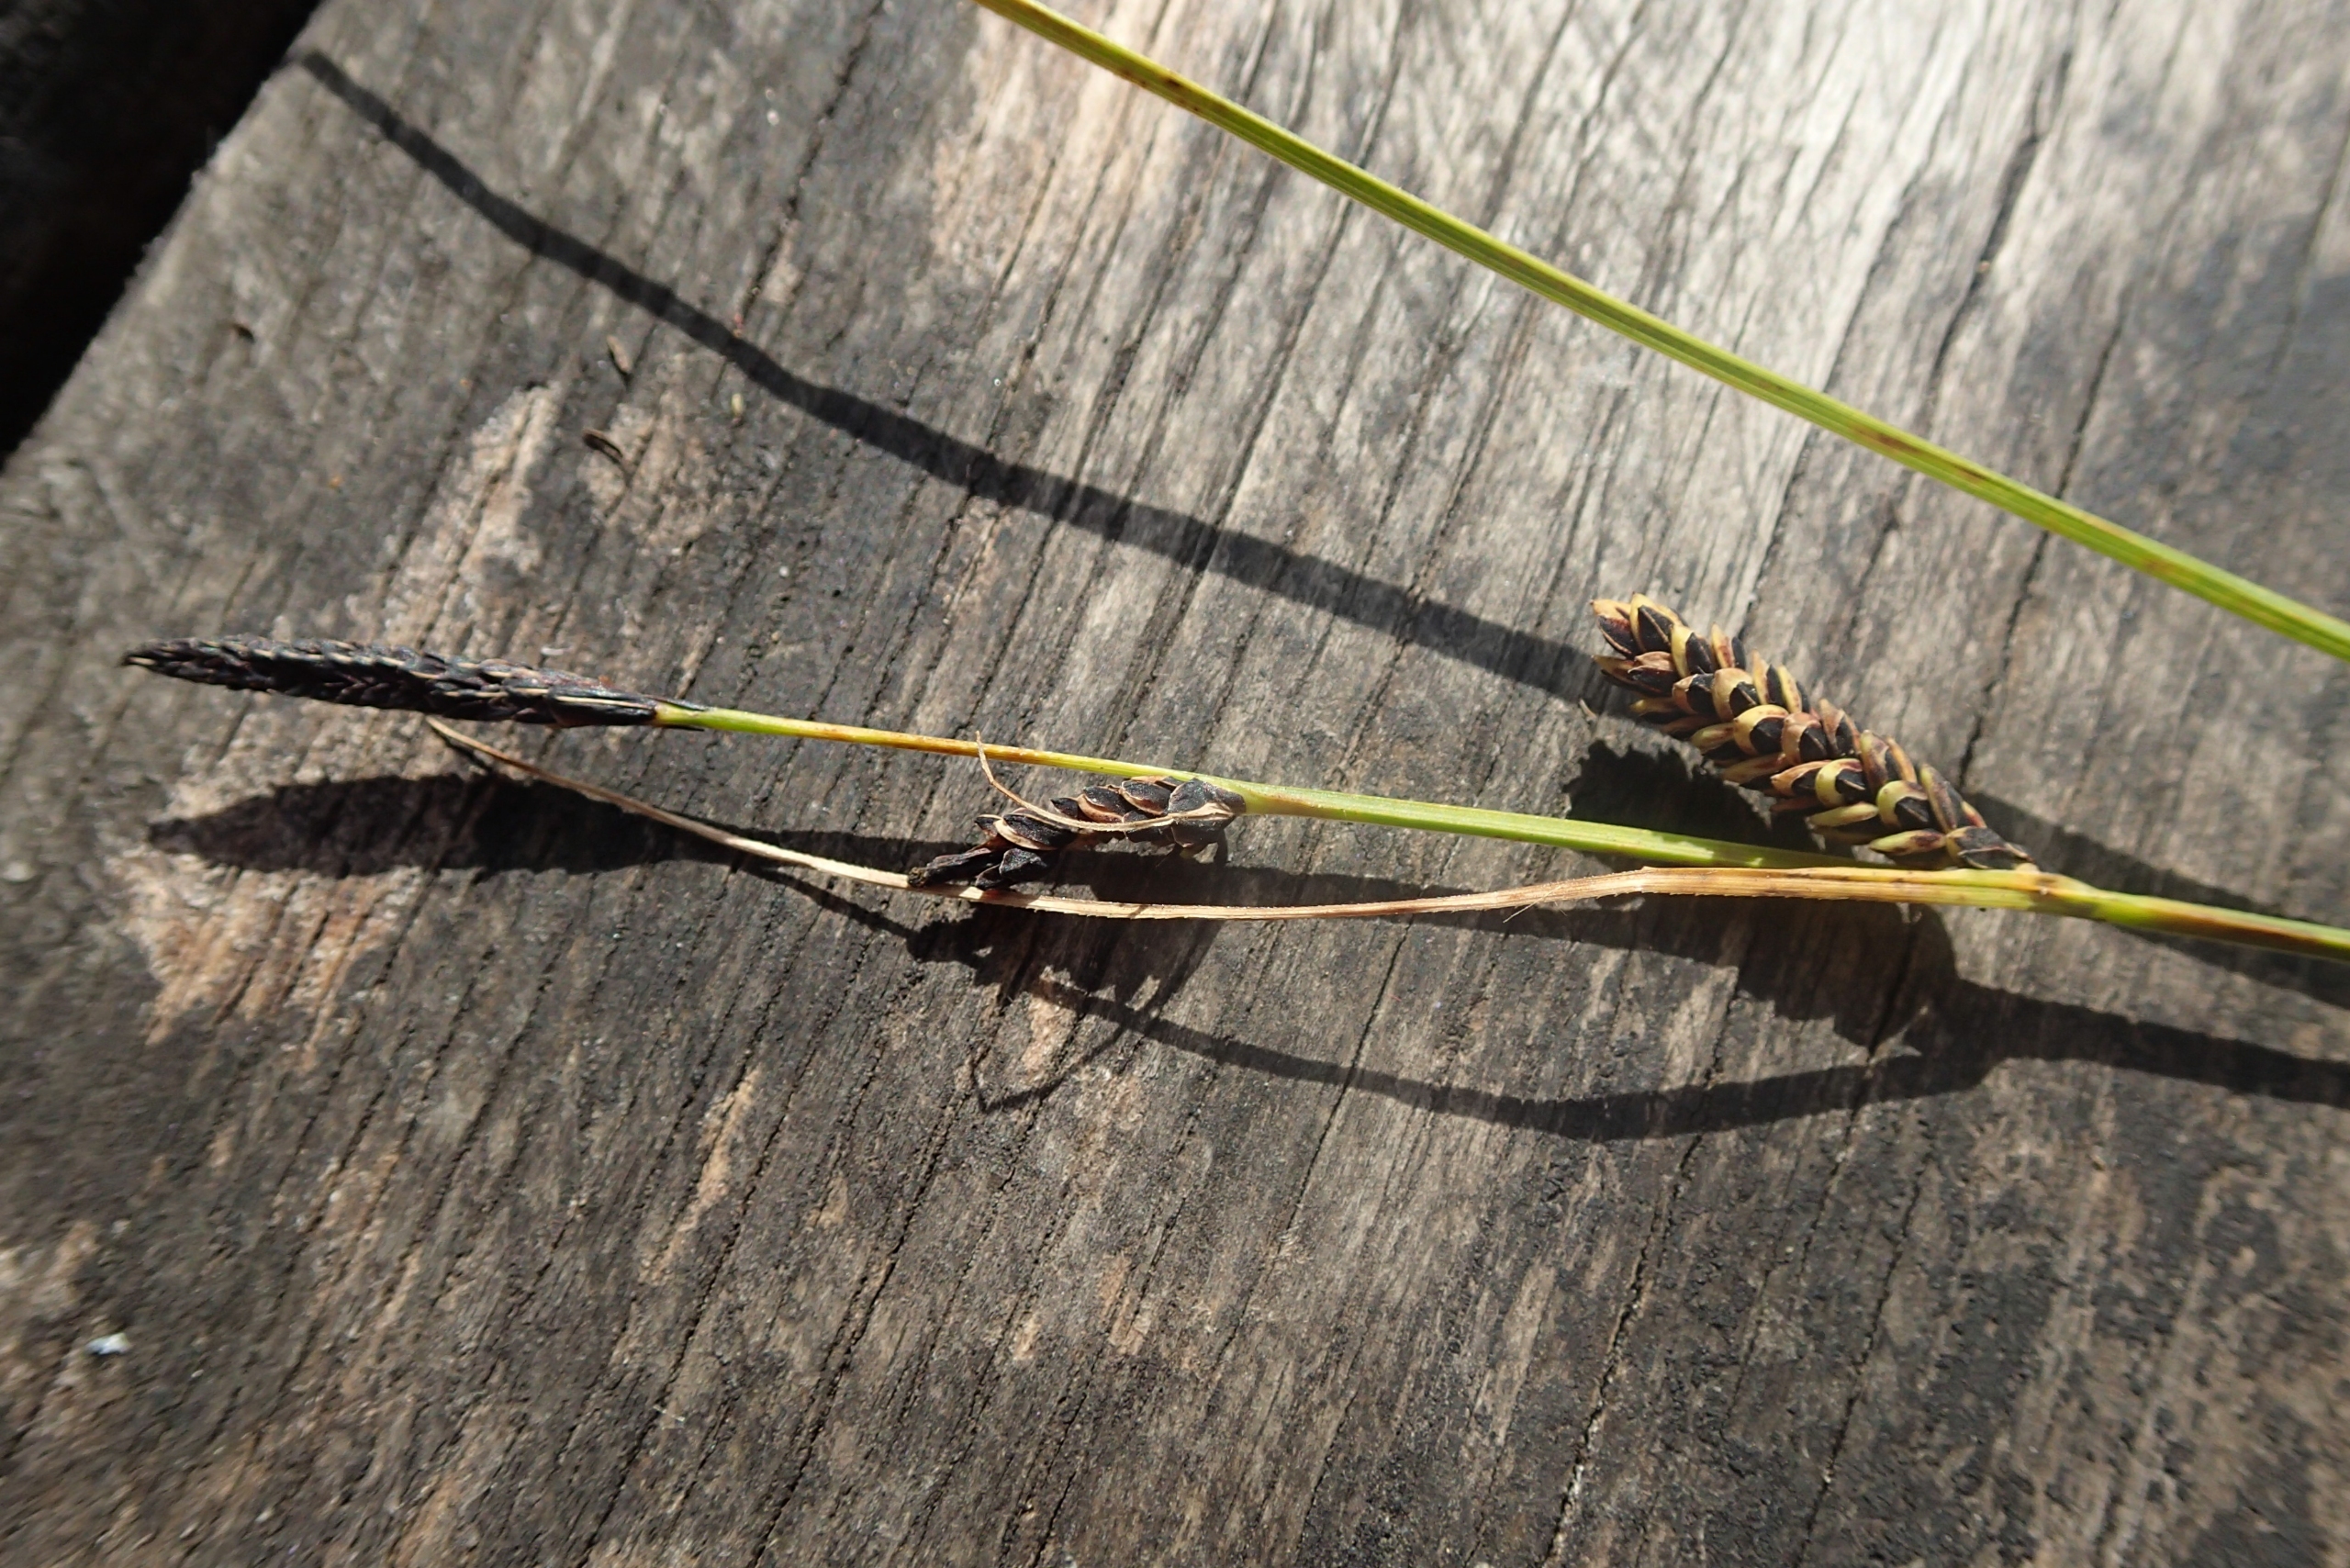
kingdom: Plantae
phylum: Tracheophyta
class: Liliopsida
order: Poales
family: Cyperaceae
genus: Carex
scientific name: Carex nigra
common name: Almindelig star
